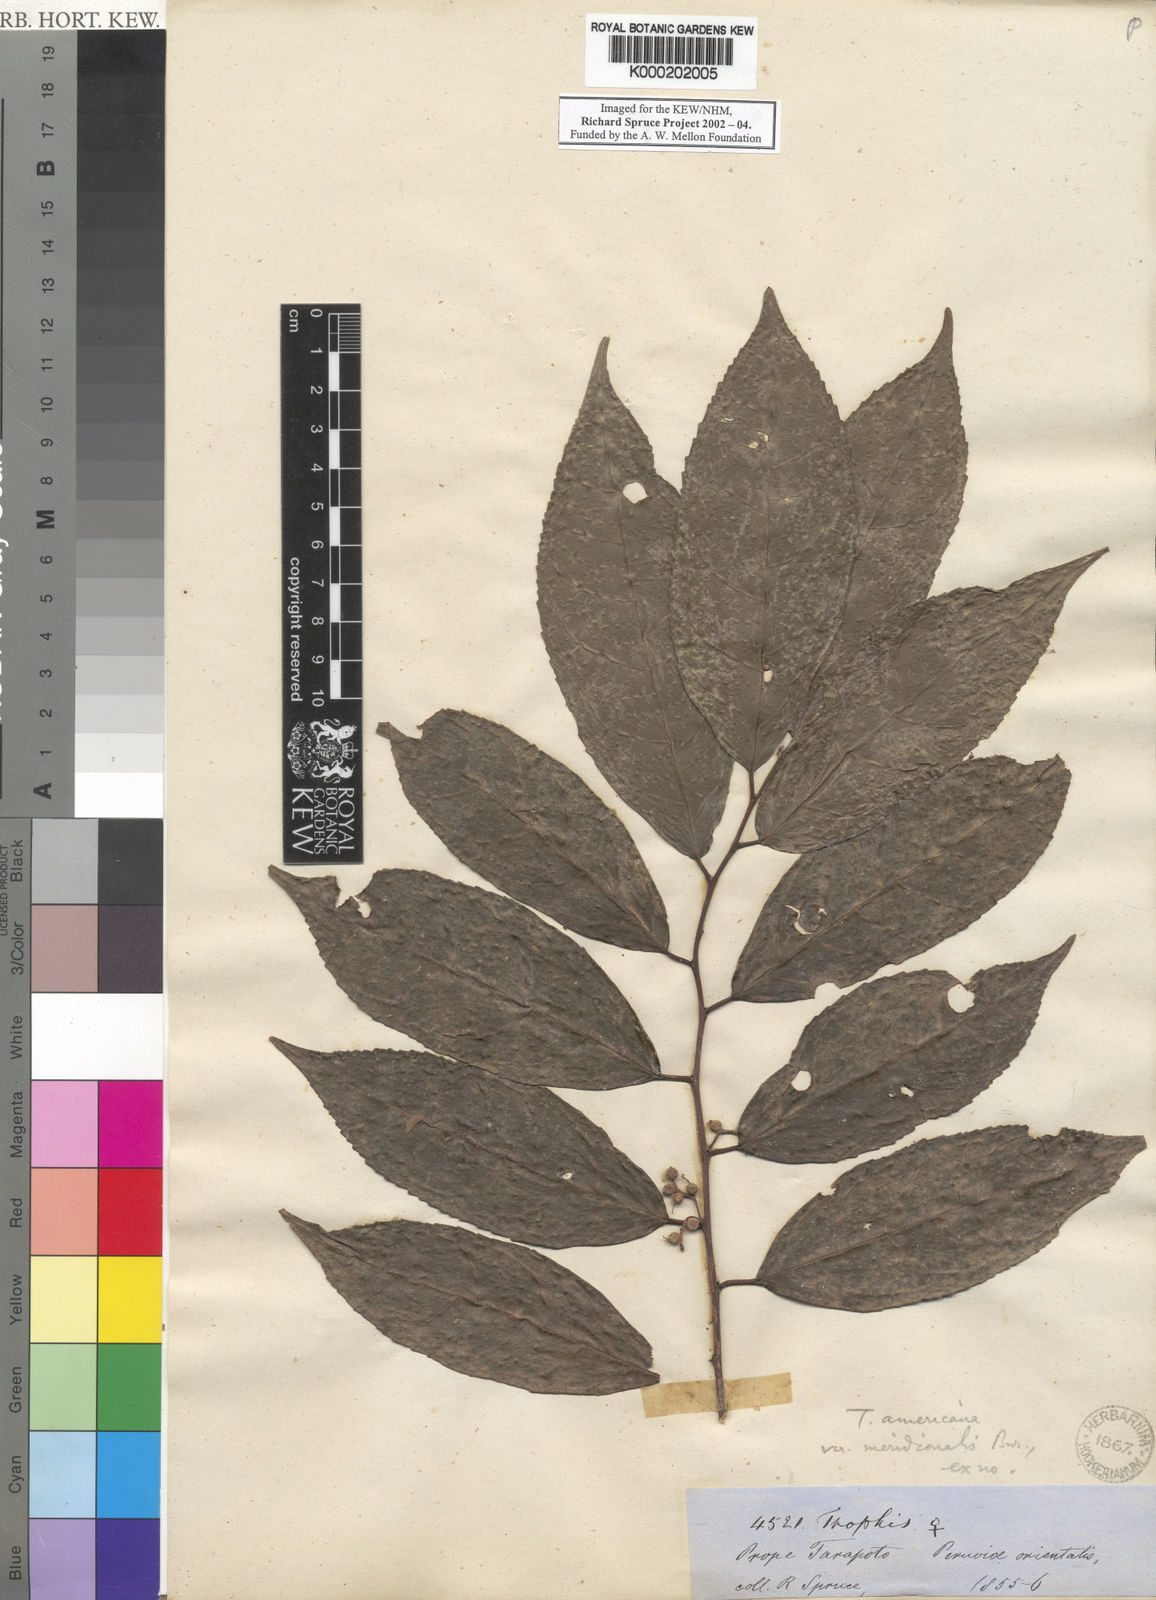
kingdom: Plantae
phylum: Tracheophyta
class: Magnoliopsida
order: Rosales
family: Moraceae
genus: Trophis
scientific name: Trophis racemosa
